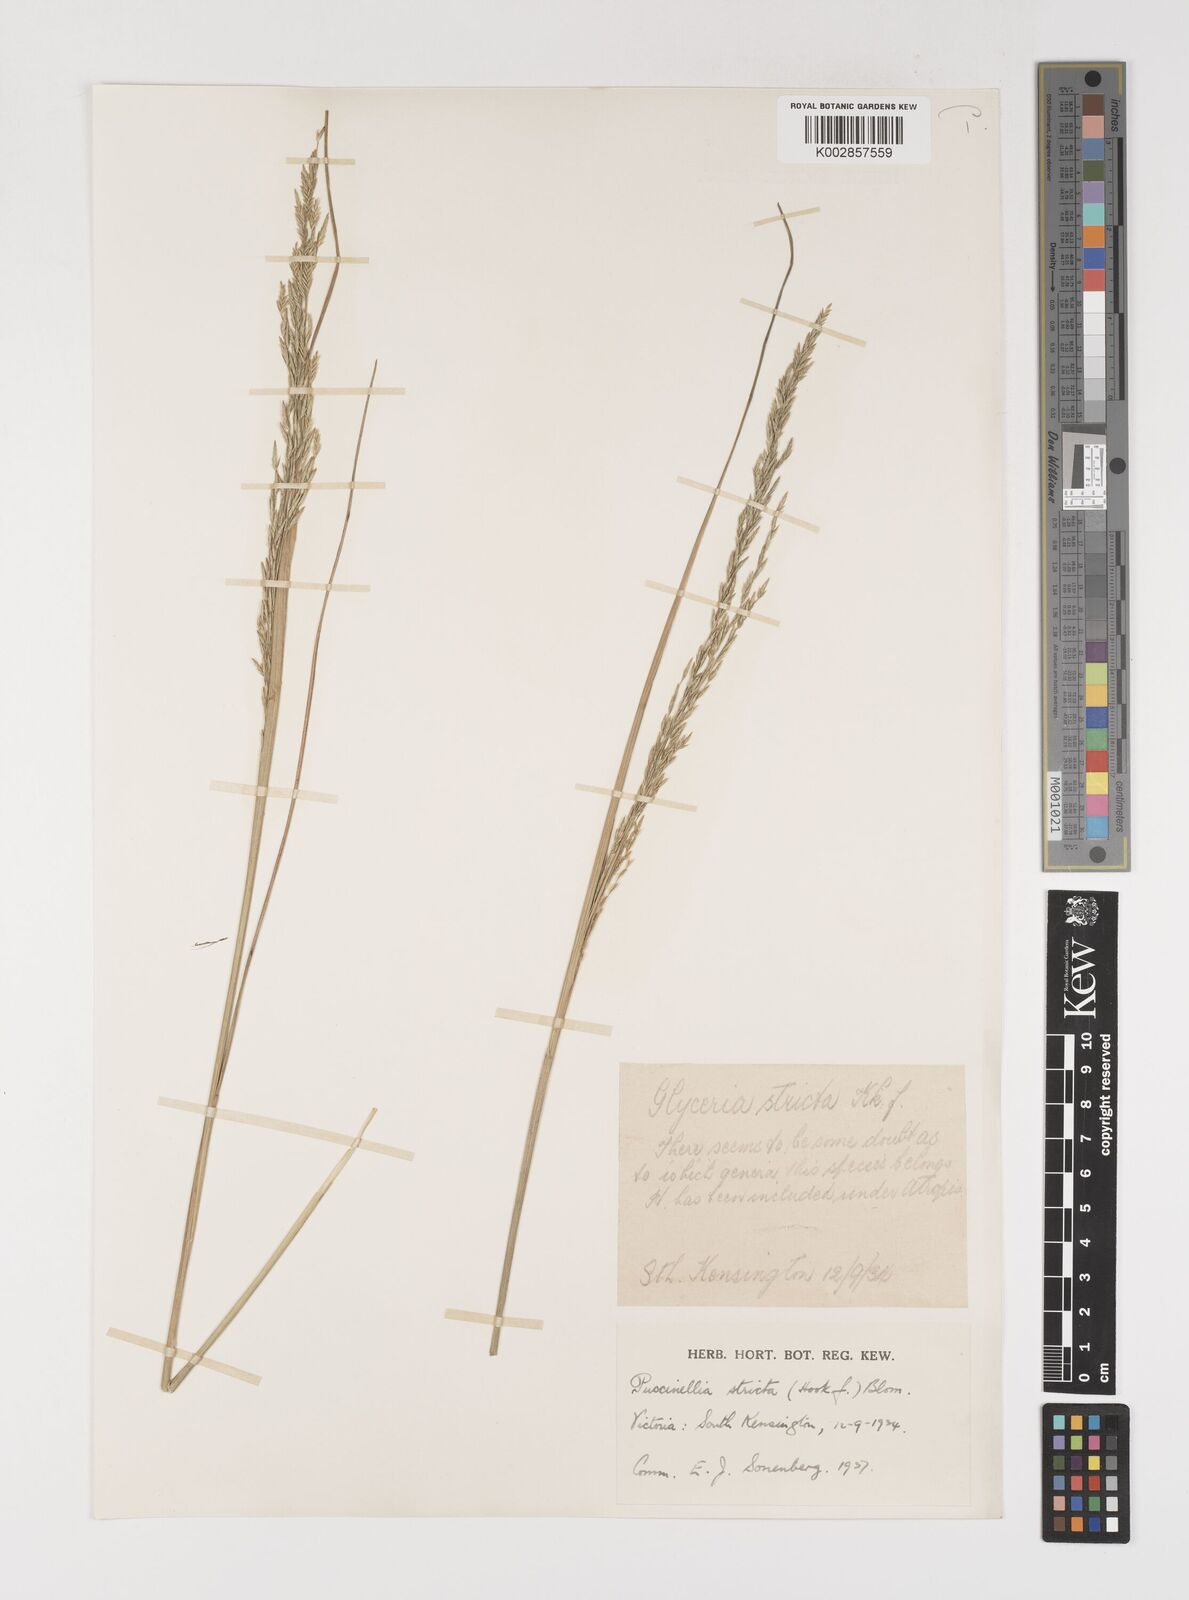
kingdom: Plantae
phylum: Tracheophyta
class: Liliopsida
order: Poales
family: Poaceae
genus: Puccinellia
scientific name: Puccinellia stricta
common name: Australian saltmarsh grass
